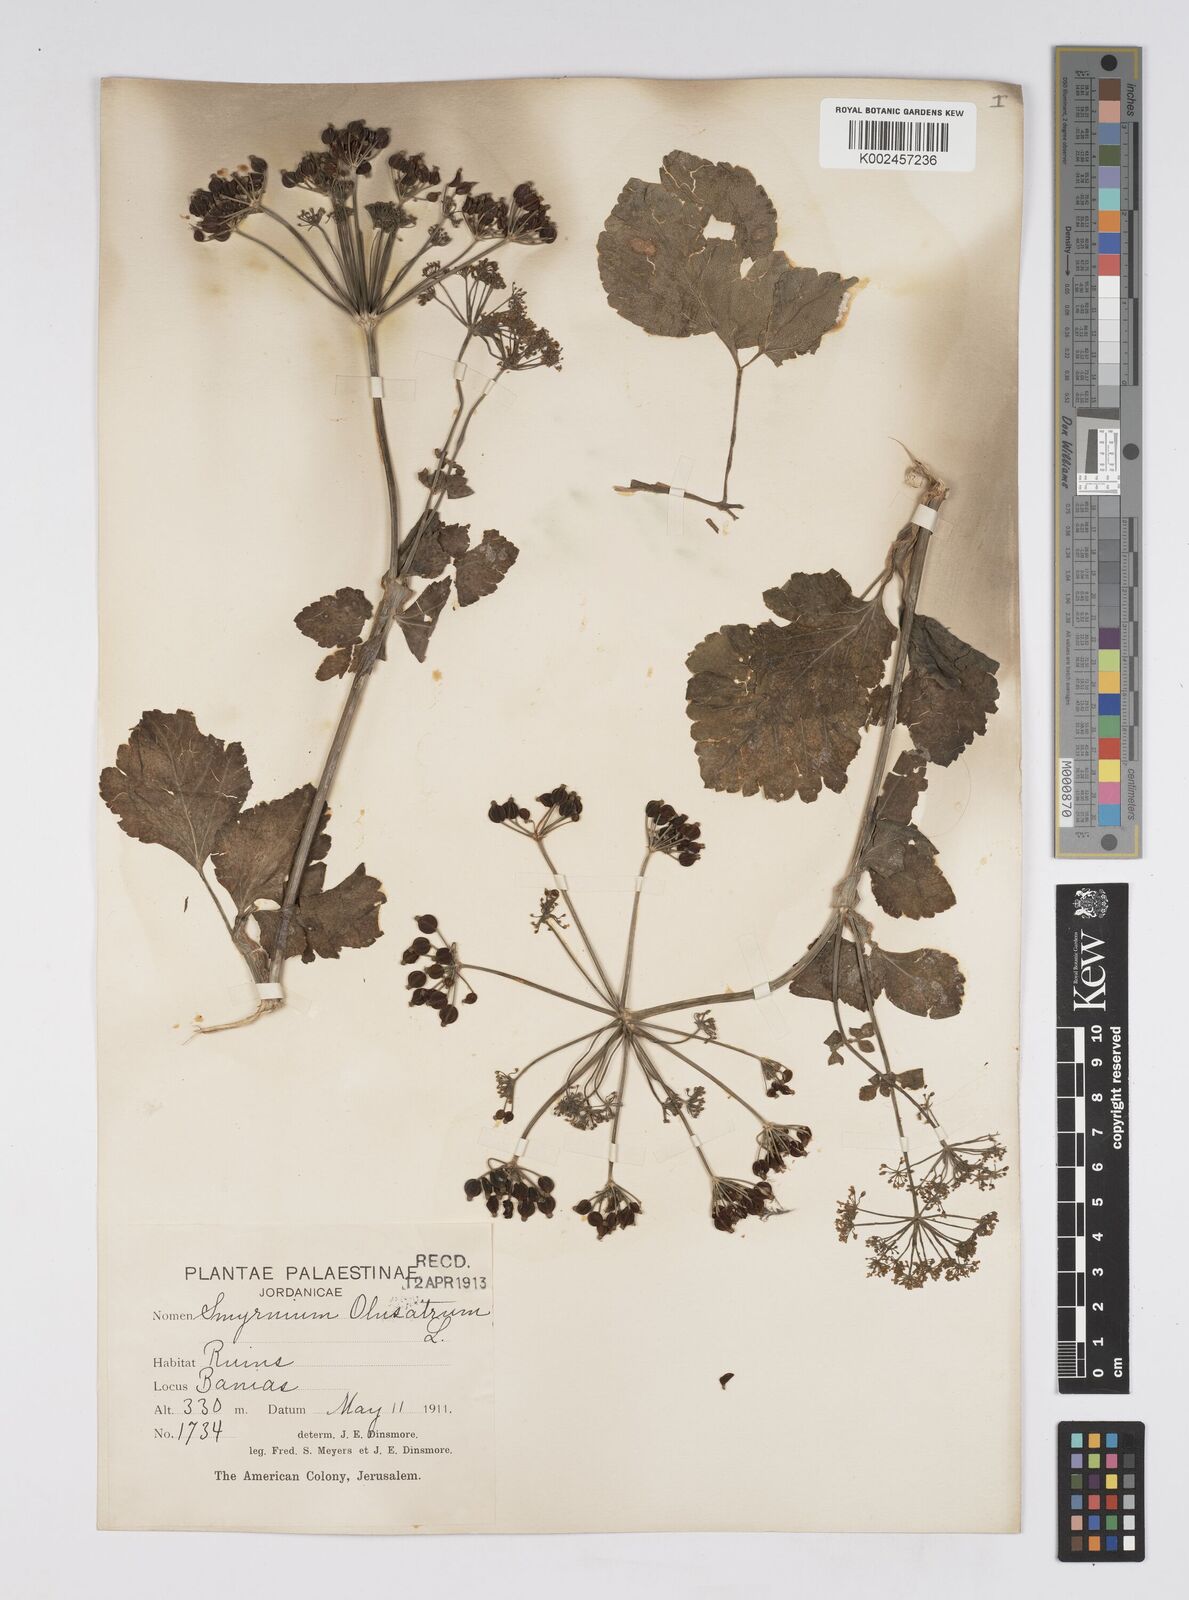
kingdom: Plantae
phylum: Tracheophyta
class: Magnoliopsida
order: Apiales
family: Apiaceae
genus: Smyrnium
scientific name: Smyrnium olusatrum
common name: Alexanders
